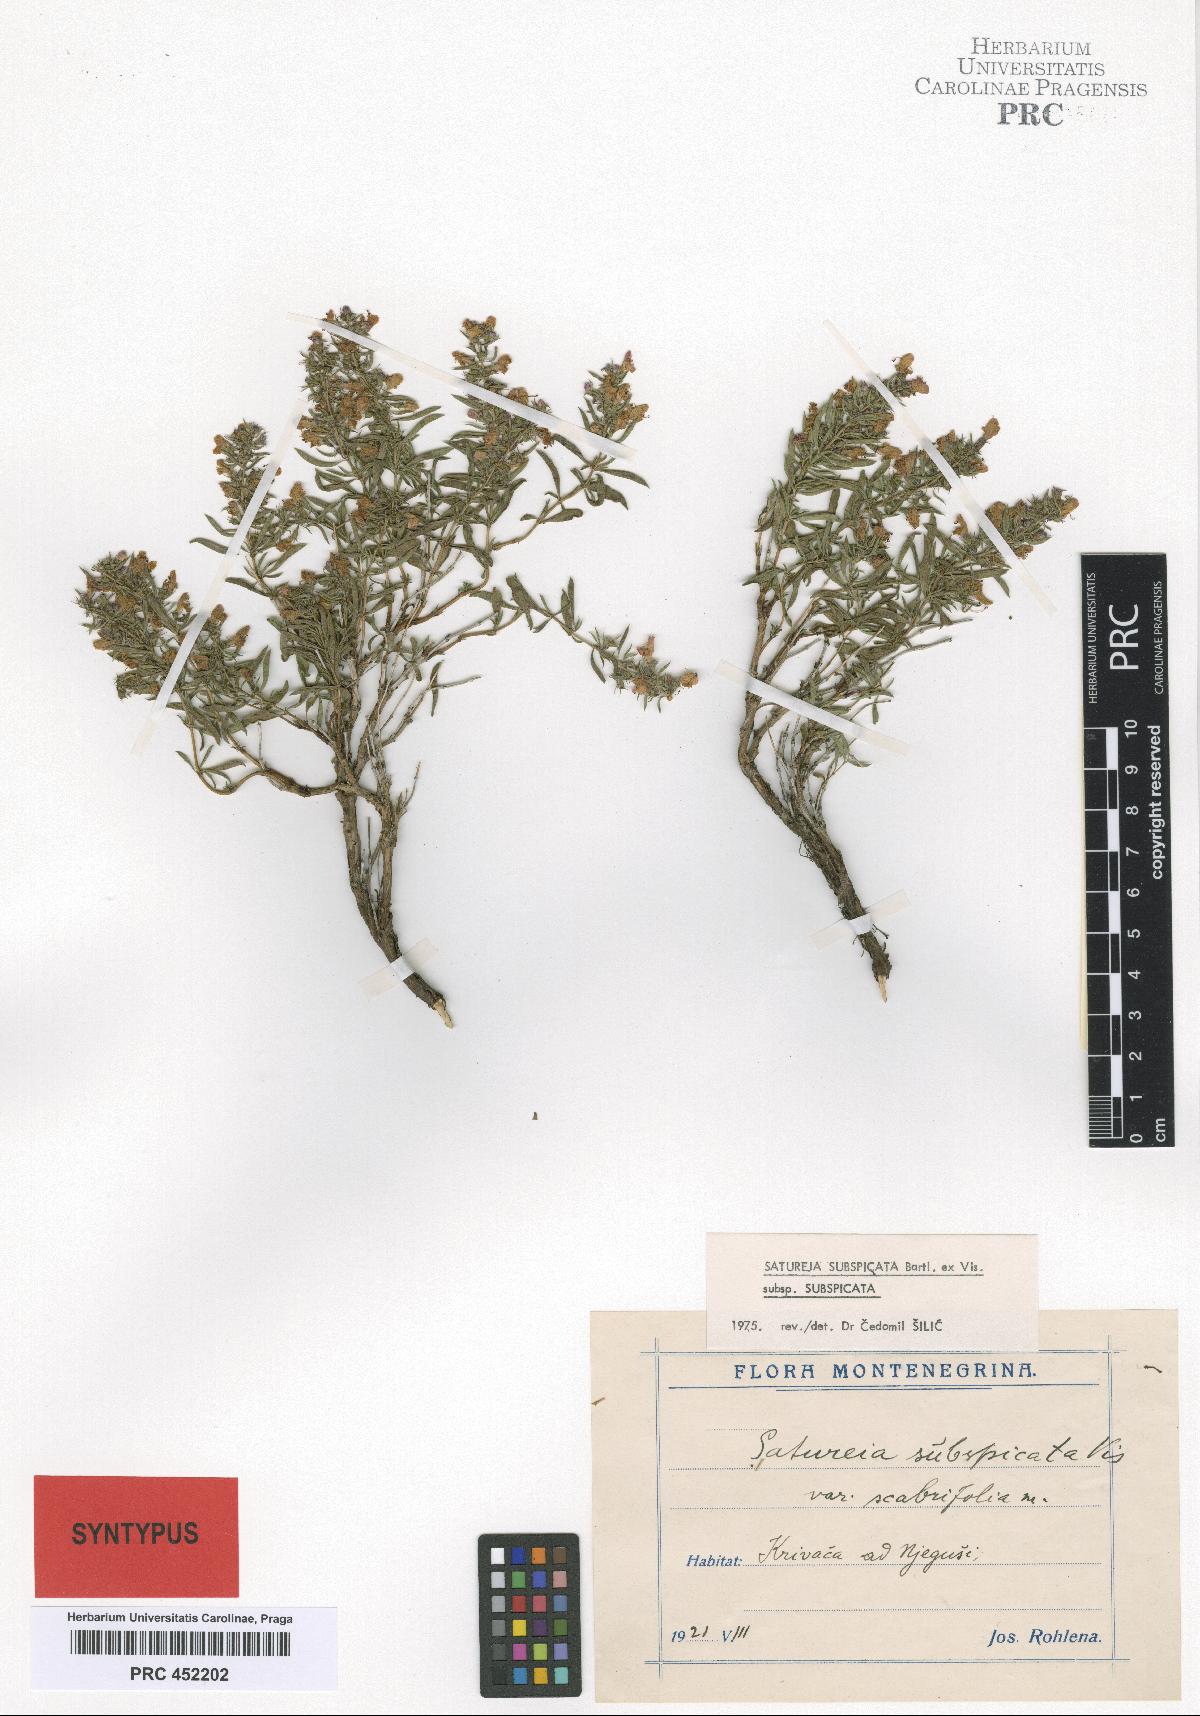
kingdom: Plantae
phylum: Tracheophyta
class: Magnoliopsida
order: Lamiales
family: Lamiaceae
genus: Satureja
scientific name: Satureja subspicata
